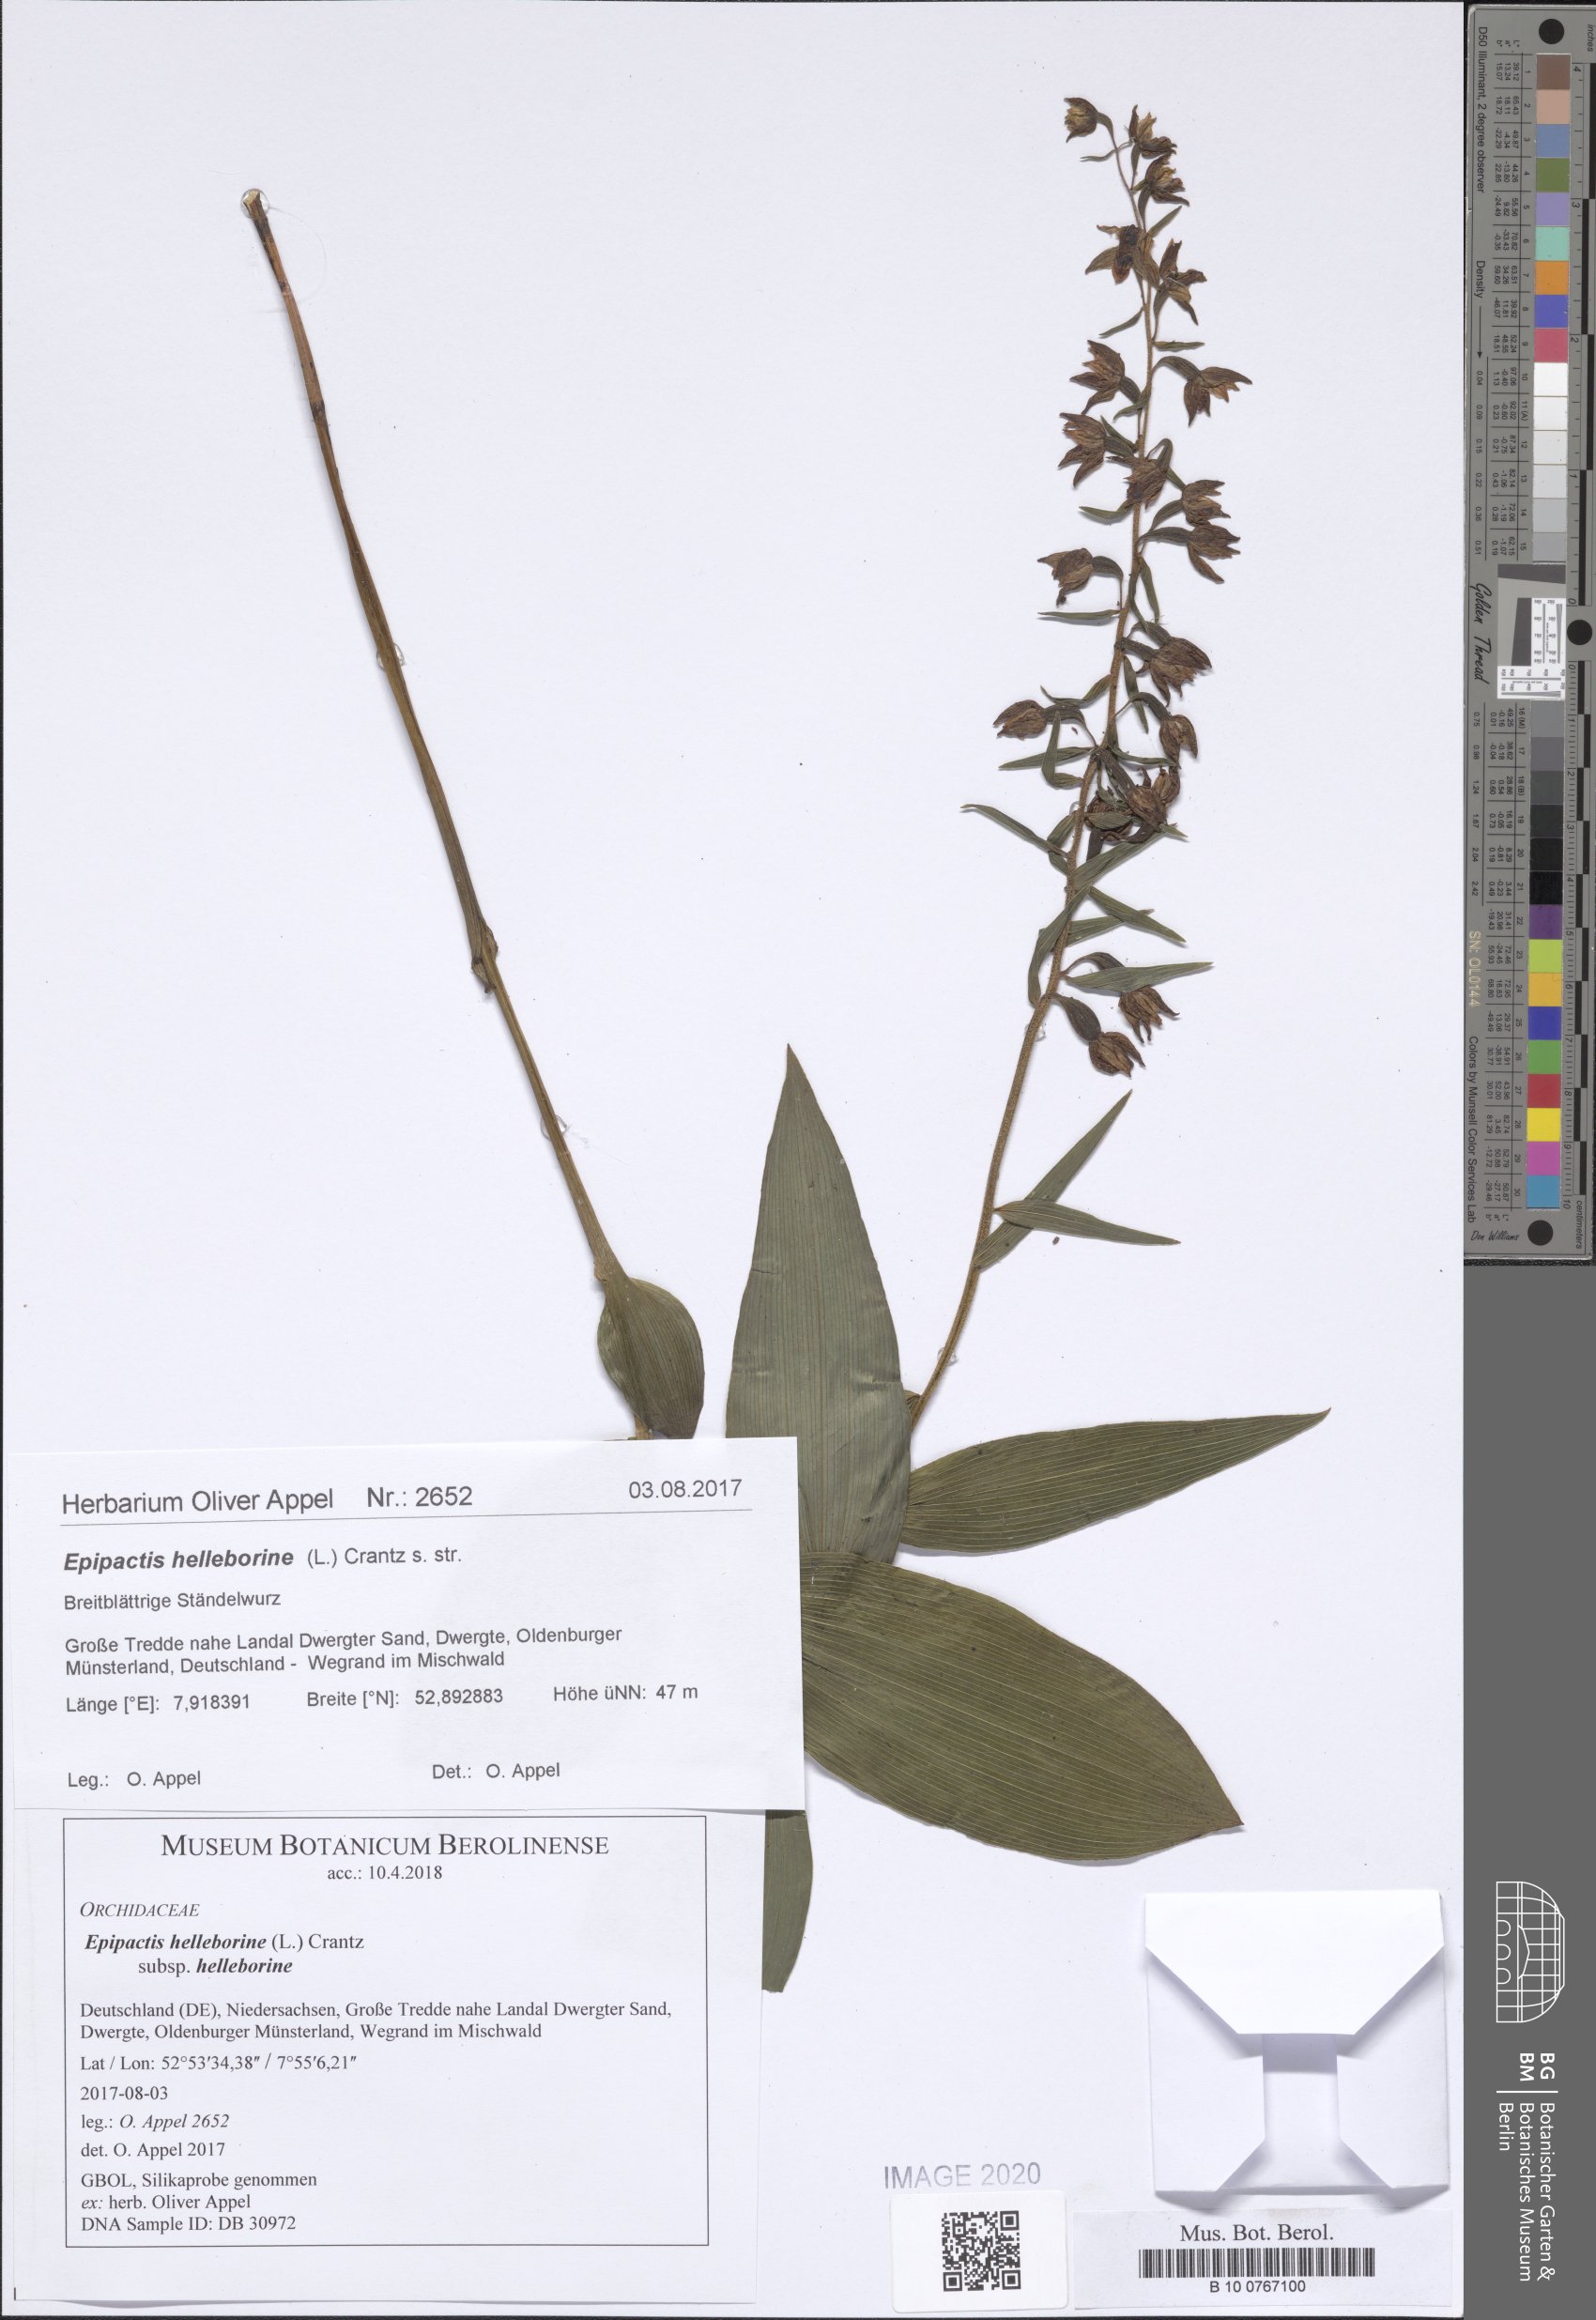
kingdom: Plantae
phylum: Tracheophyta
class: Liliopsida
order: Asparagales
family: Orchidaceae
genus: Epipactis
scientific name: Epipactis helleborine
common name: Broad-leaved helleborine
